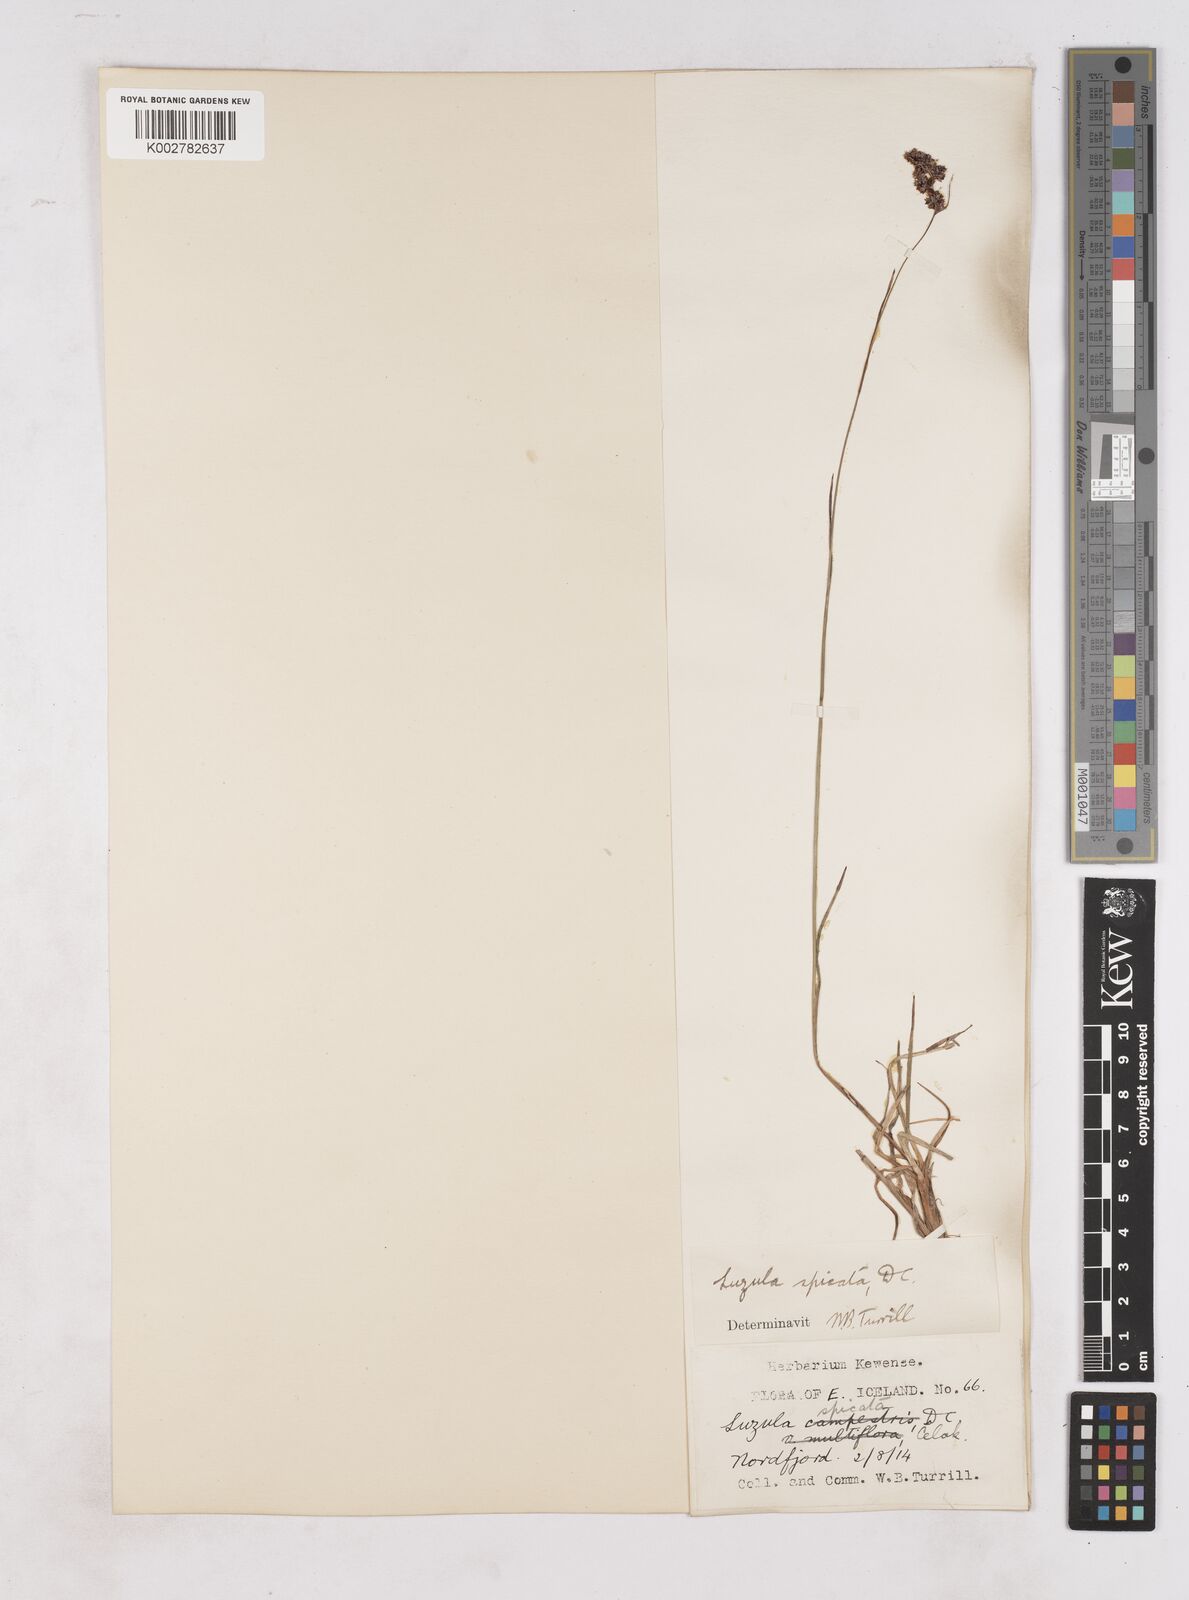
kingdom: Plantae
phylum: Tracheophyta
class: Liliopsida
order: Poales
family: Juncaceae
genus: Luzula
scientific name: Luzula spicata
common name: Spiked wood-rush
